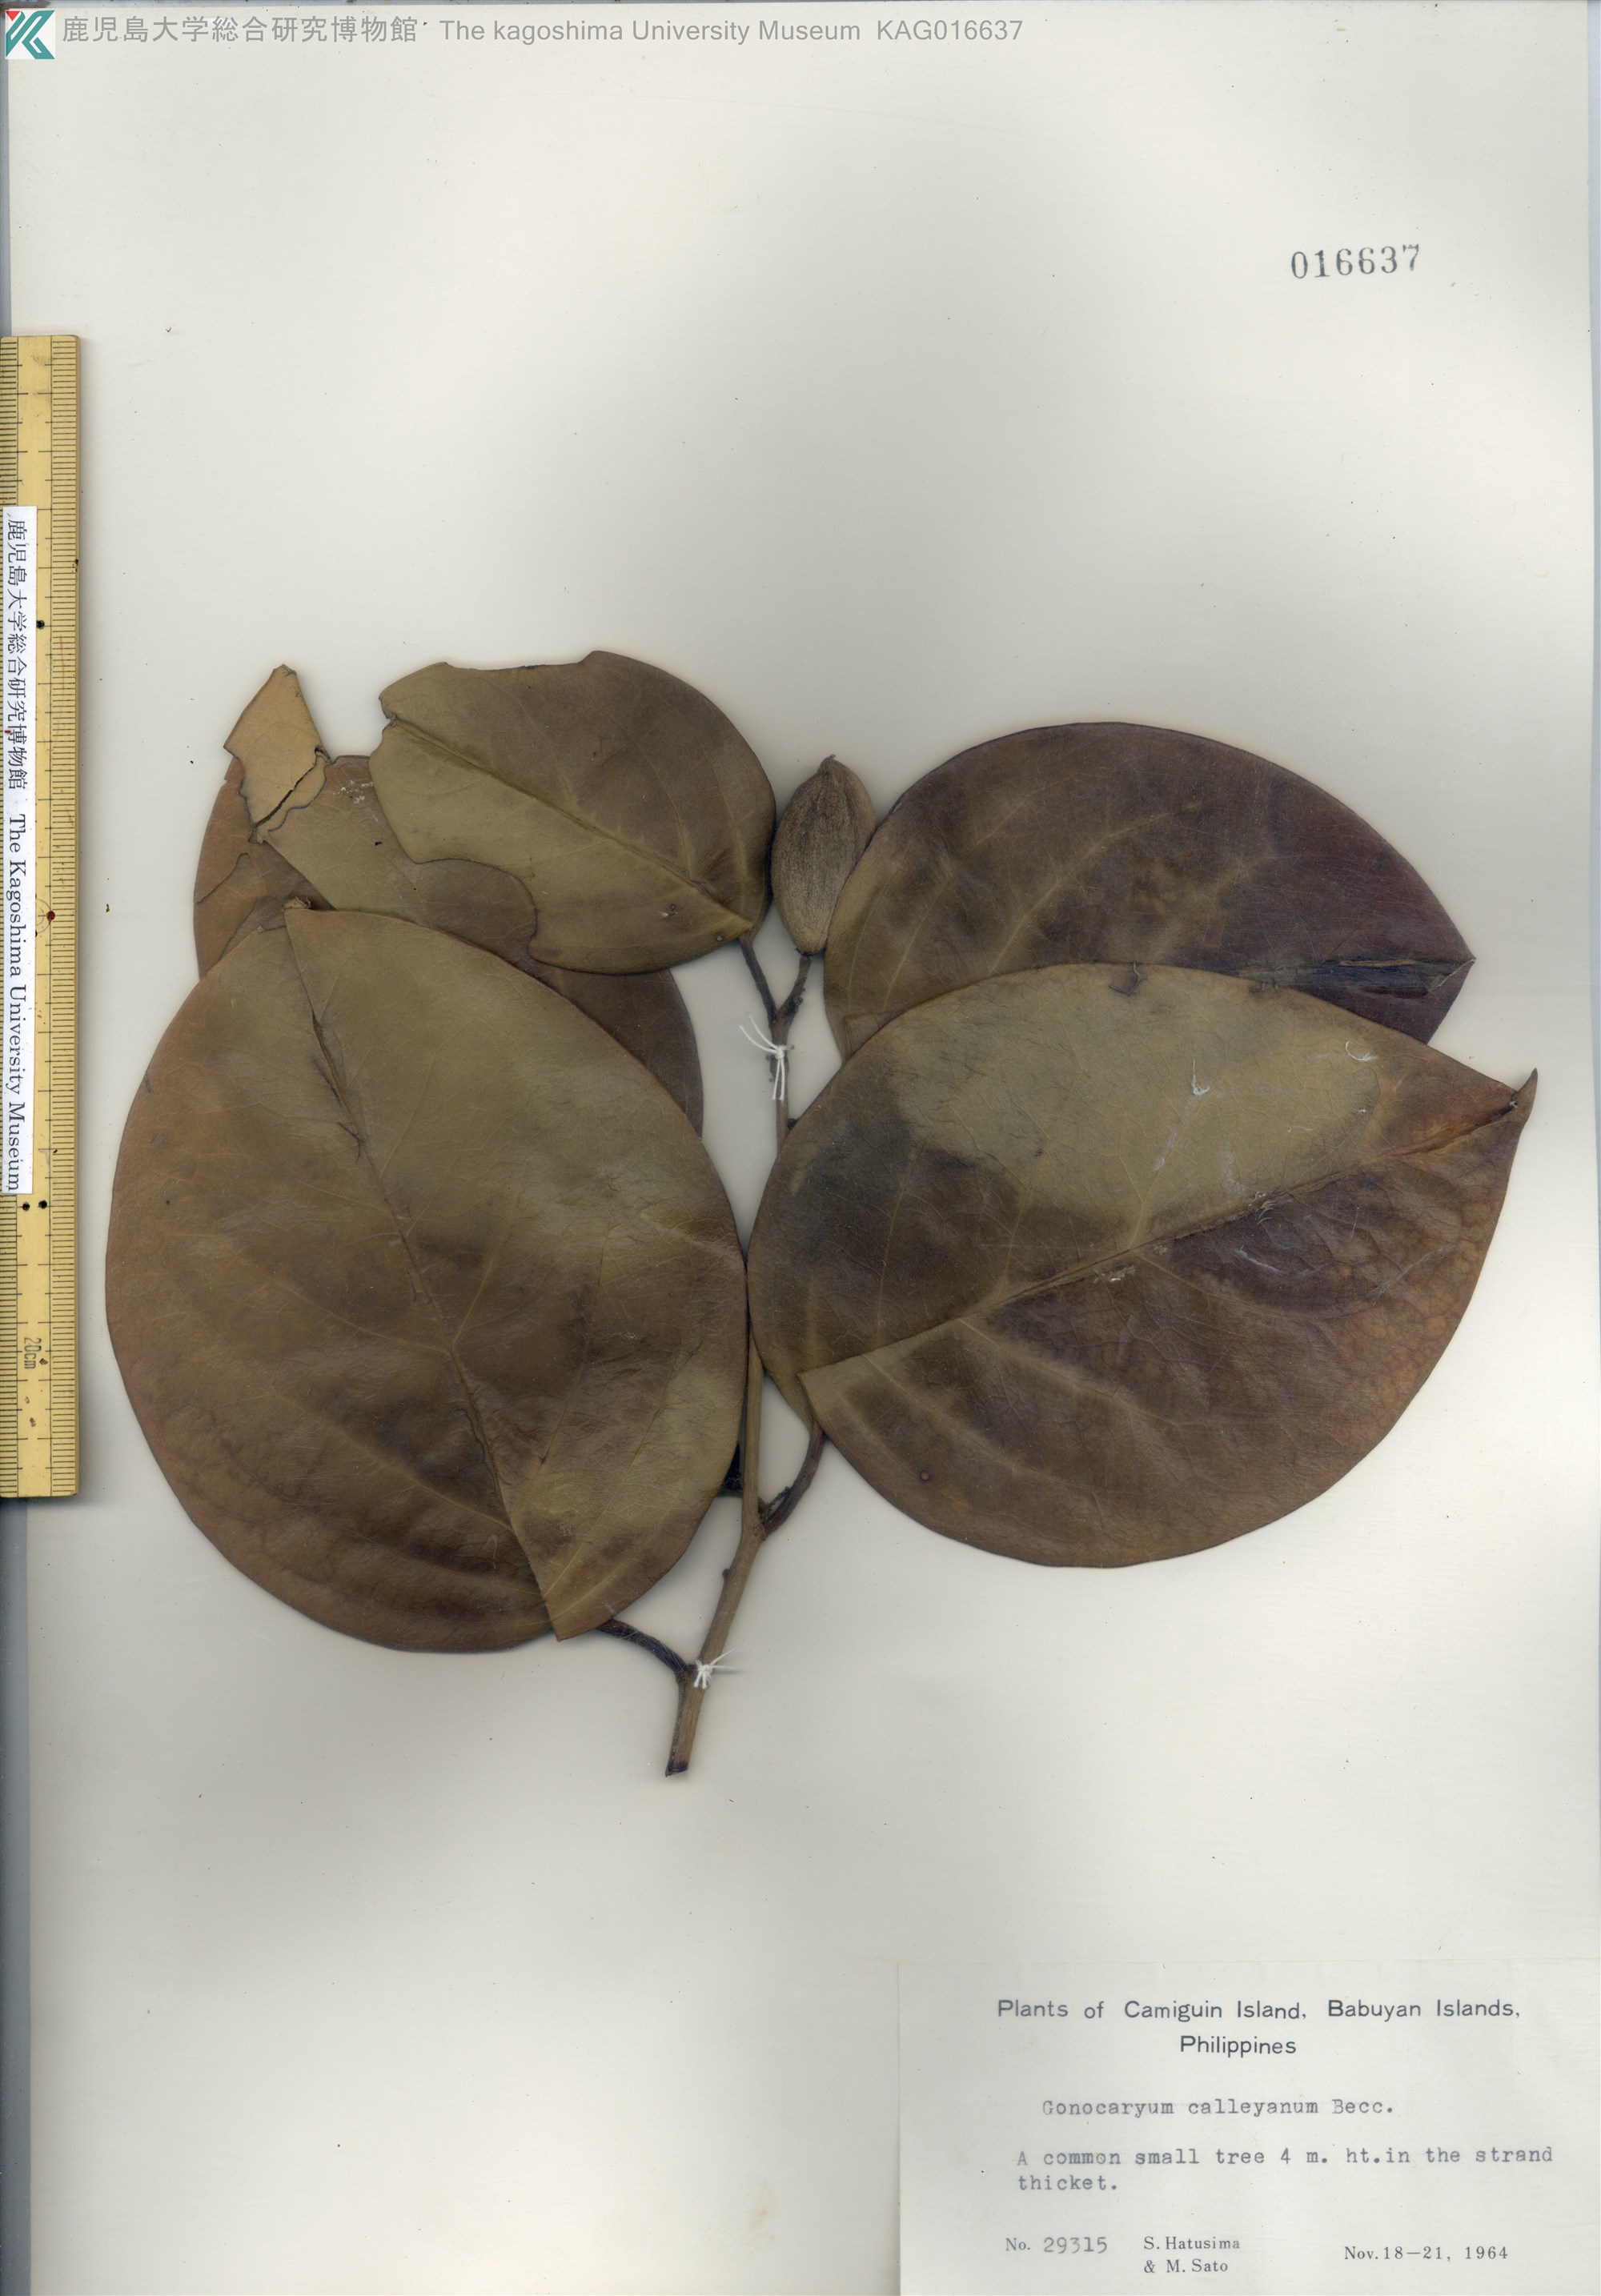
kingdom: Plantae
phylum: Tracheophyta
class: Magnoliopsida
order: Cardiopteridales
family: Cardiopteridaceae
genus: Gonocaryum
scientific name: Gonocaryum calleryanum
